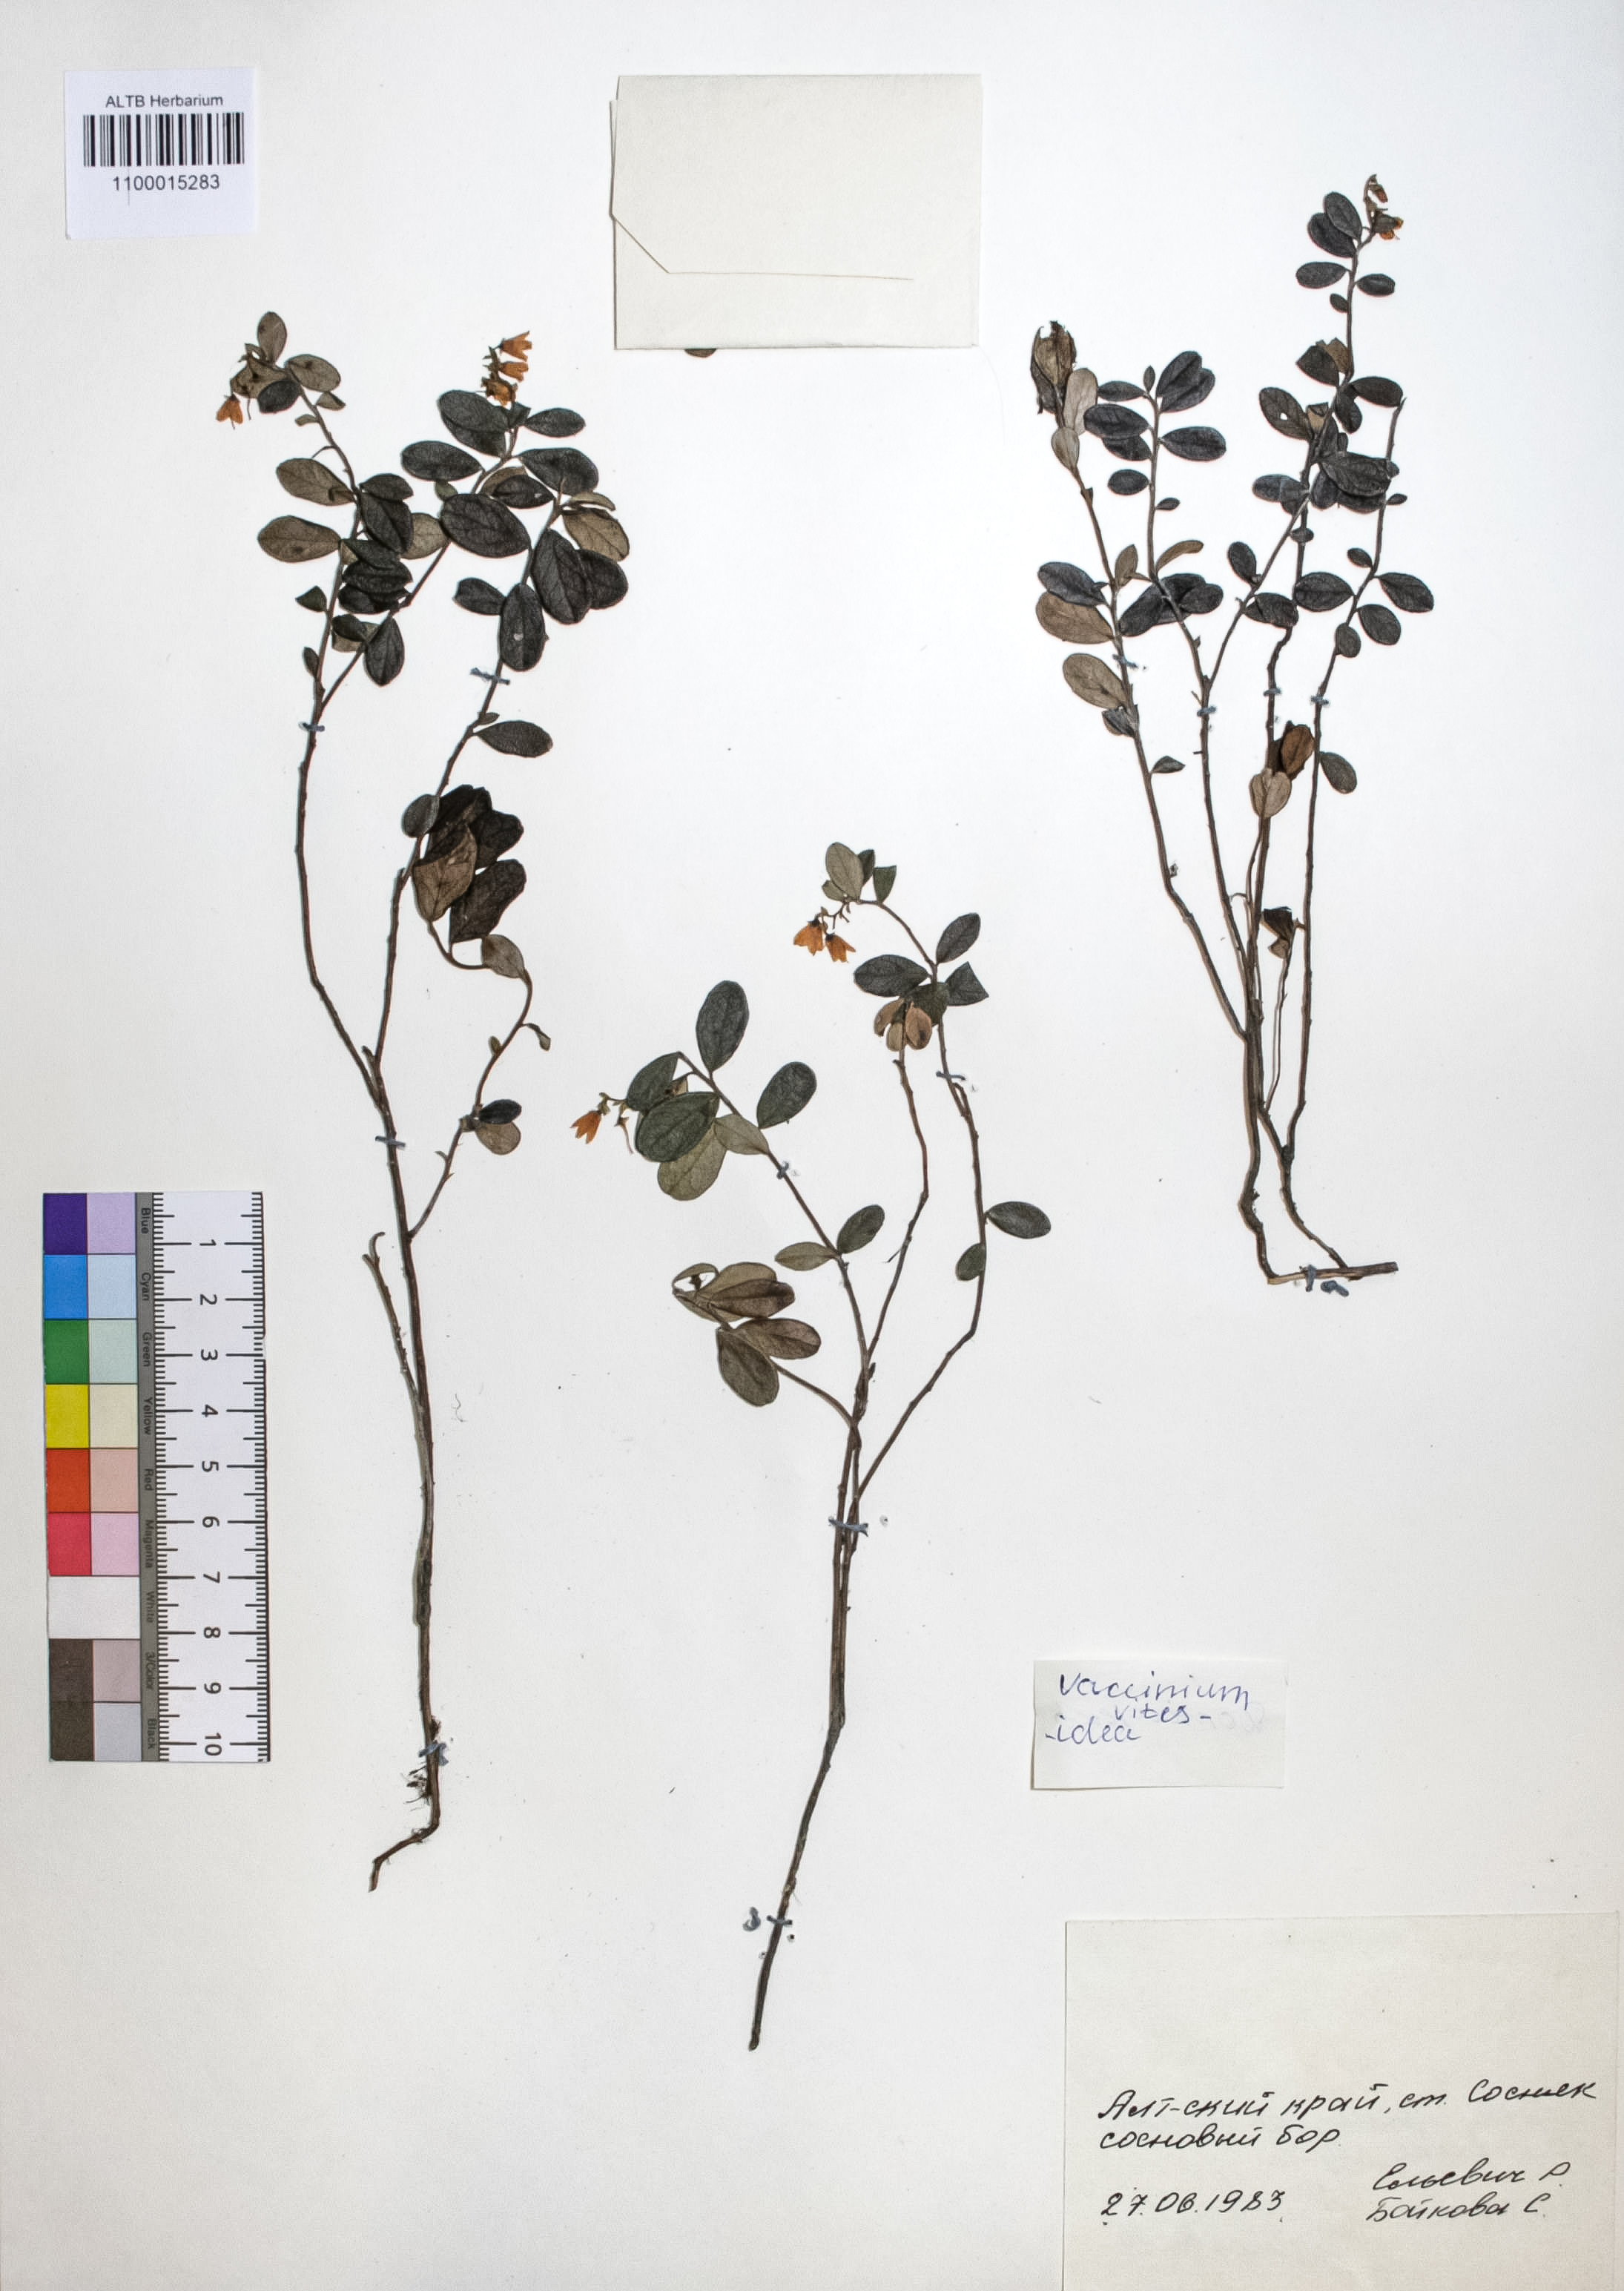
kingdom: Plantae
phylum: Tracheophyta
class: Magnoliopsida
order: Ericales
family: Ericaceae
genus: Vaccinium
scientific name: Vaccinium vitis-idaea
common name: Cowberry
